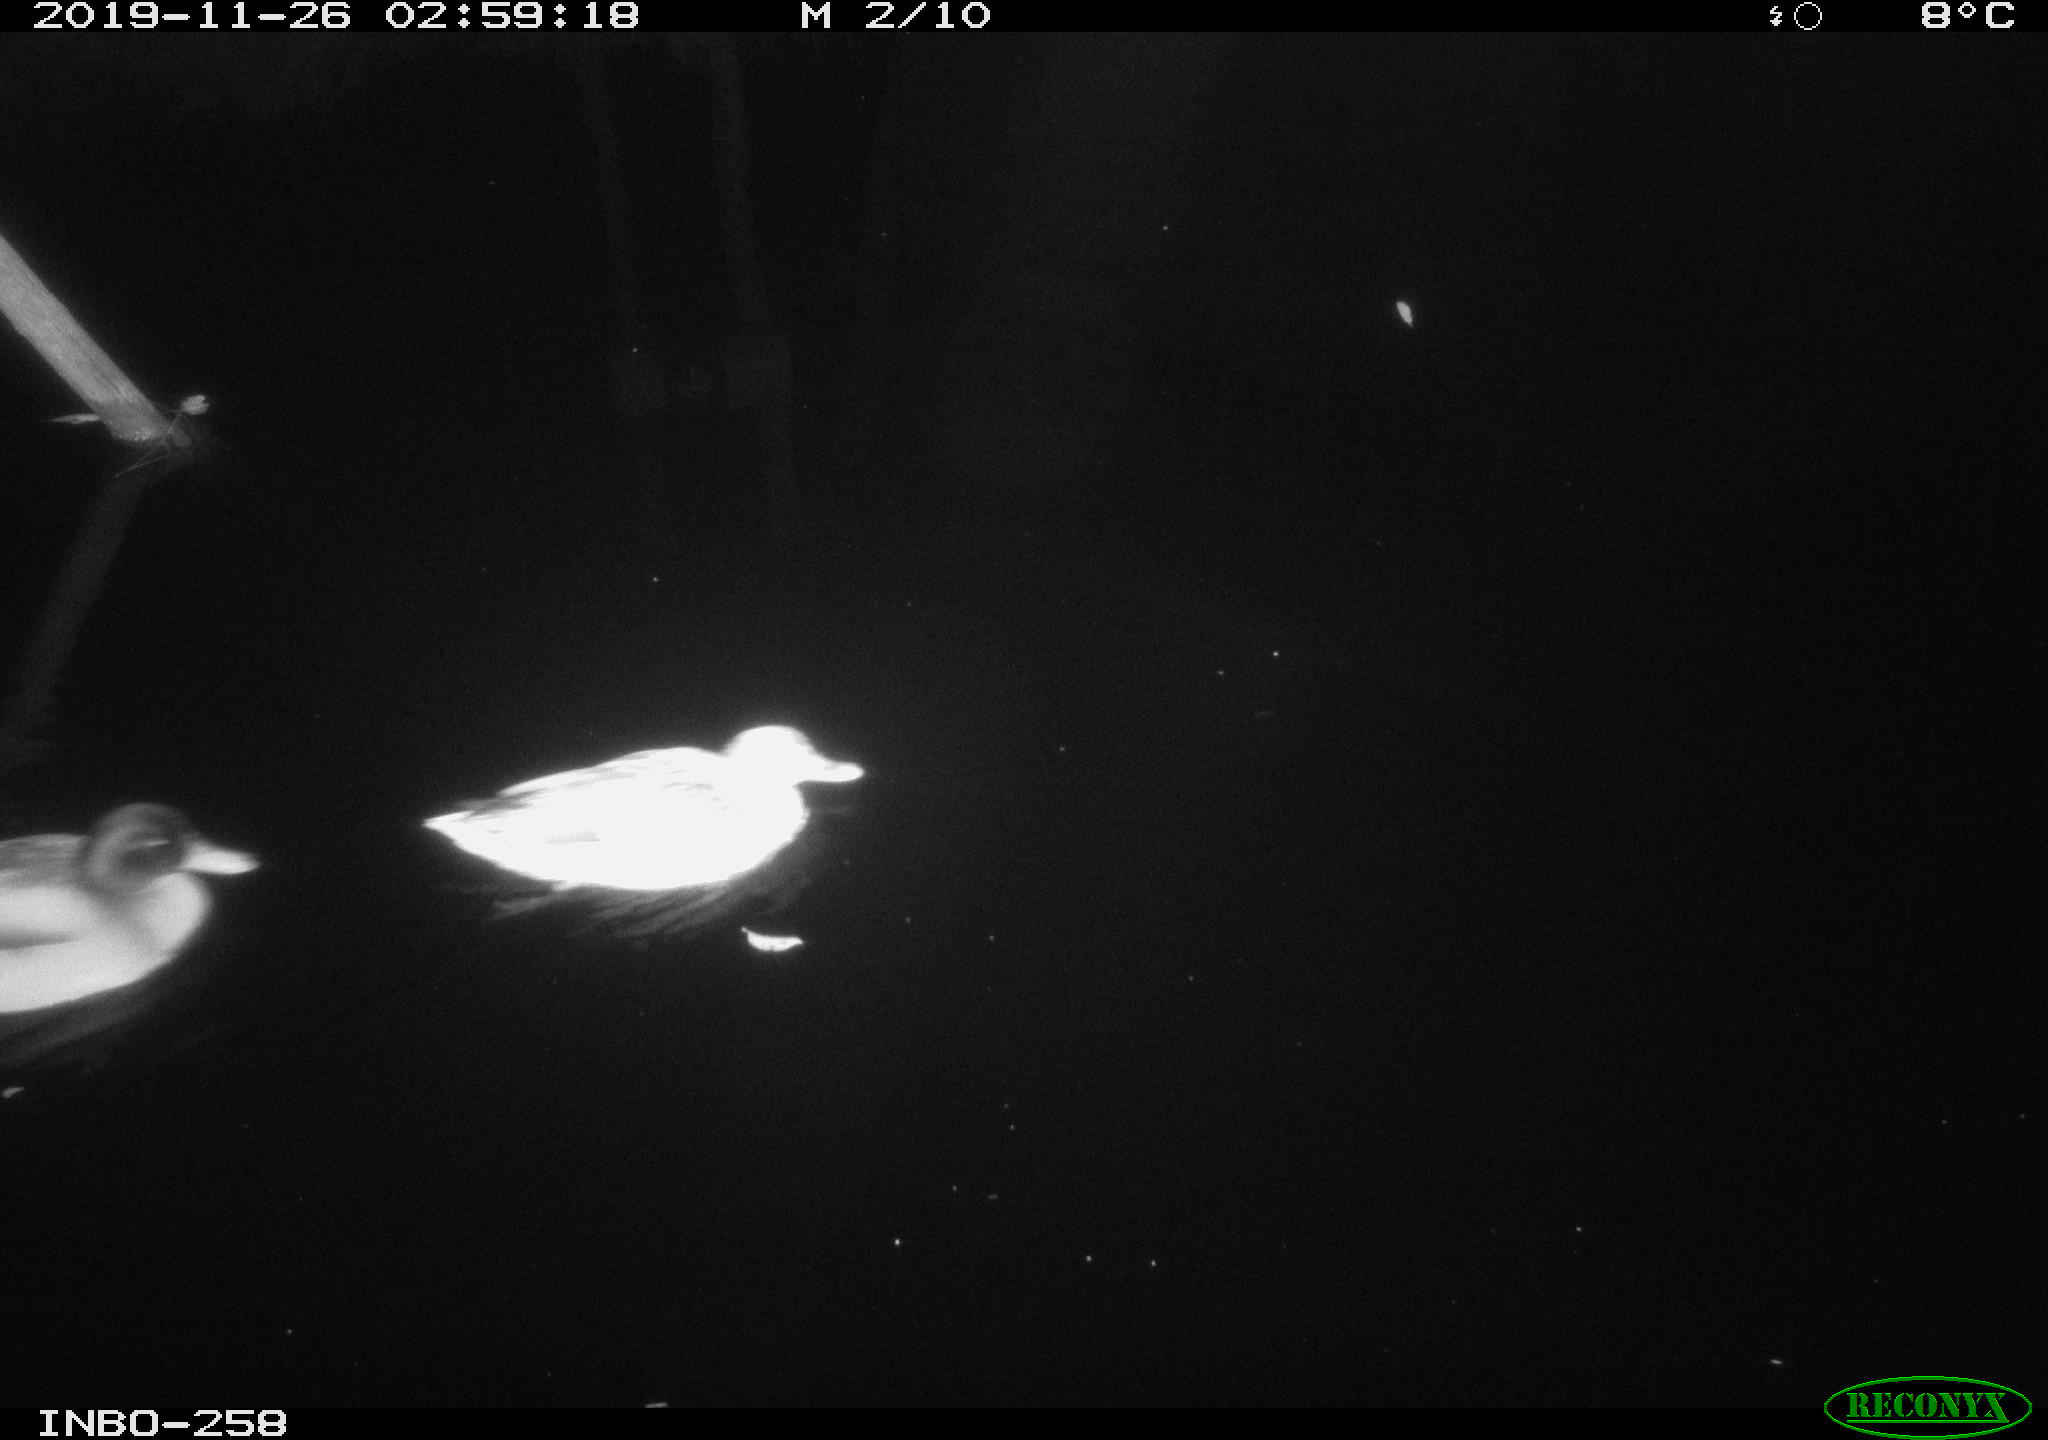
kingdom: Animalia
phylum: Chordata
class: Aves
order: Anseriformes
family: Anatidae
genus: Anas
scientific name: Anas platyrhynchos
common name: Mallard
